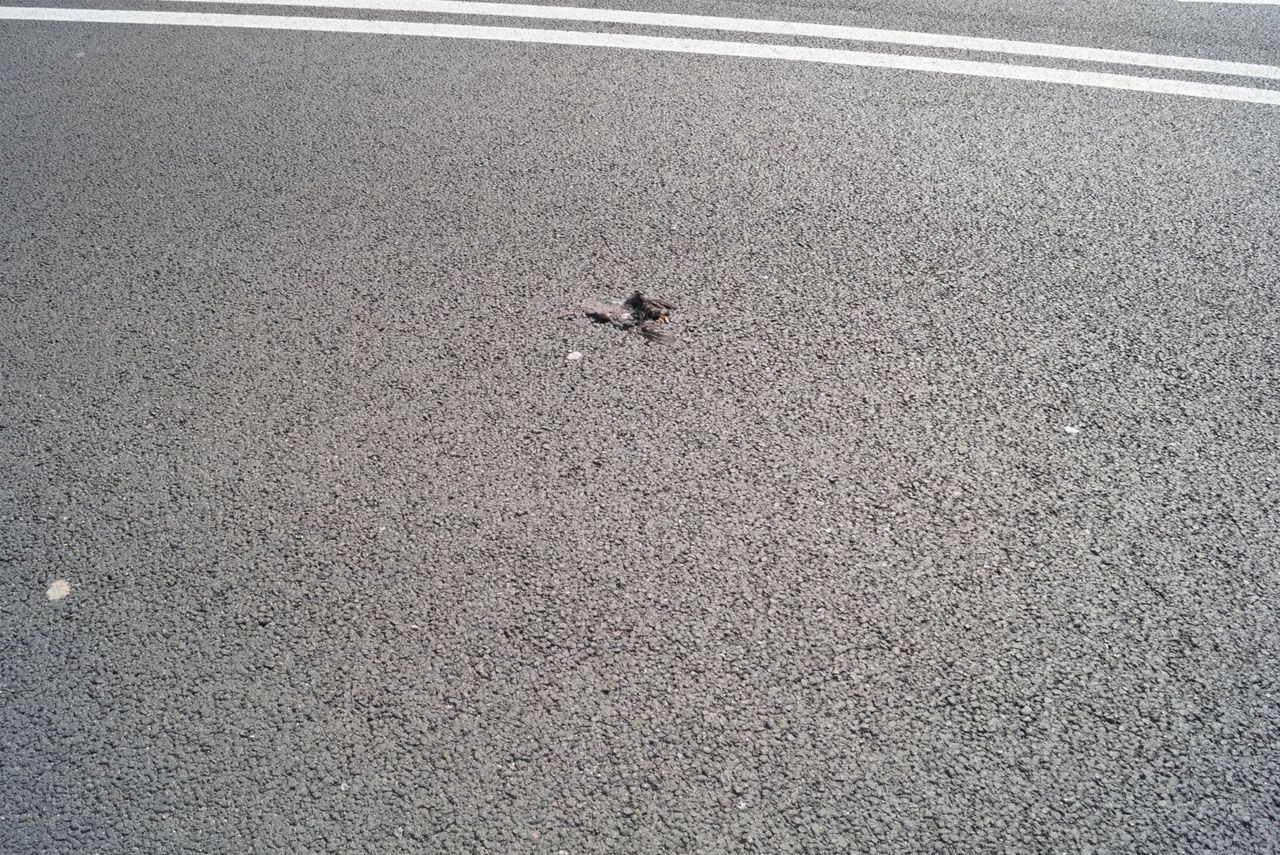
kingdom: Animalia
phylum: Chordata
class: Aves
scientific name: Aves
